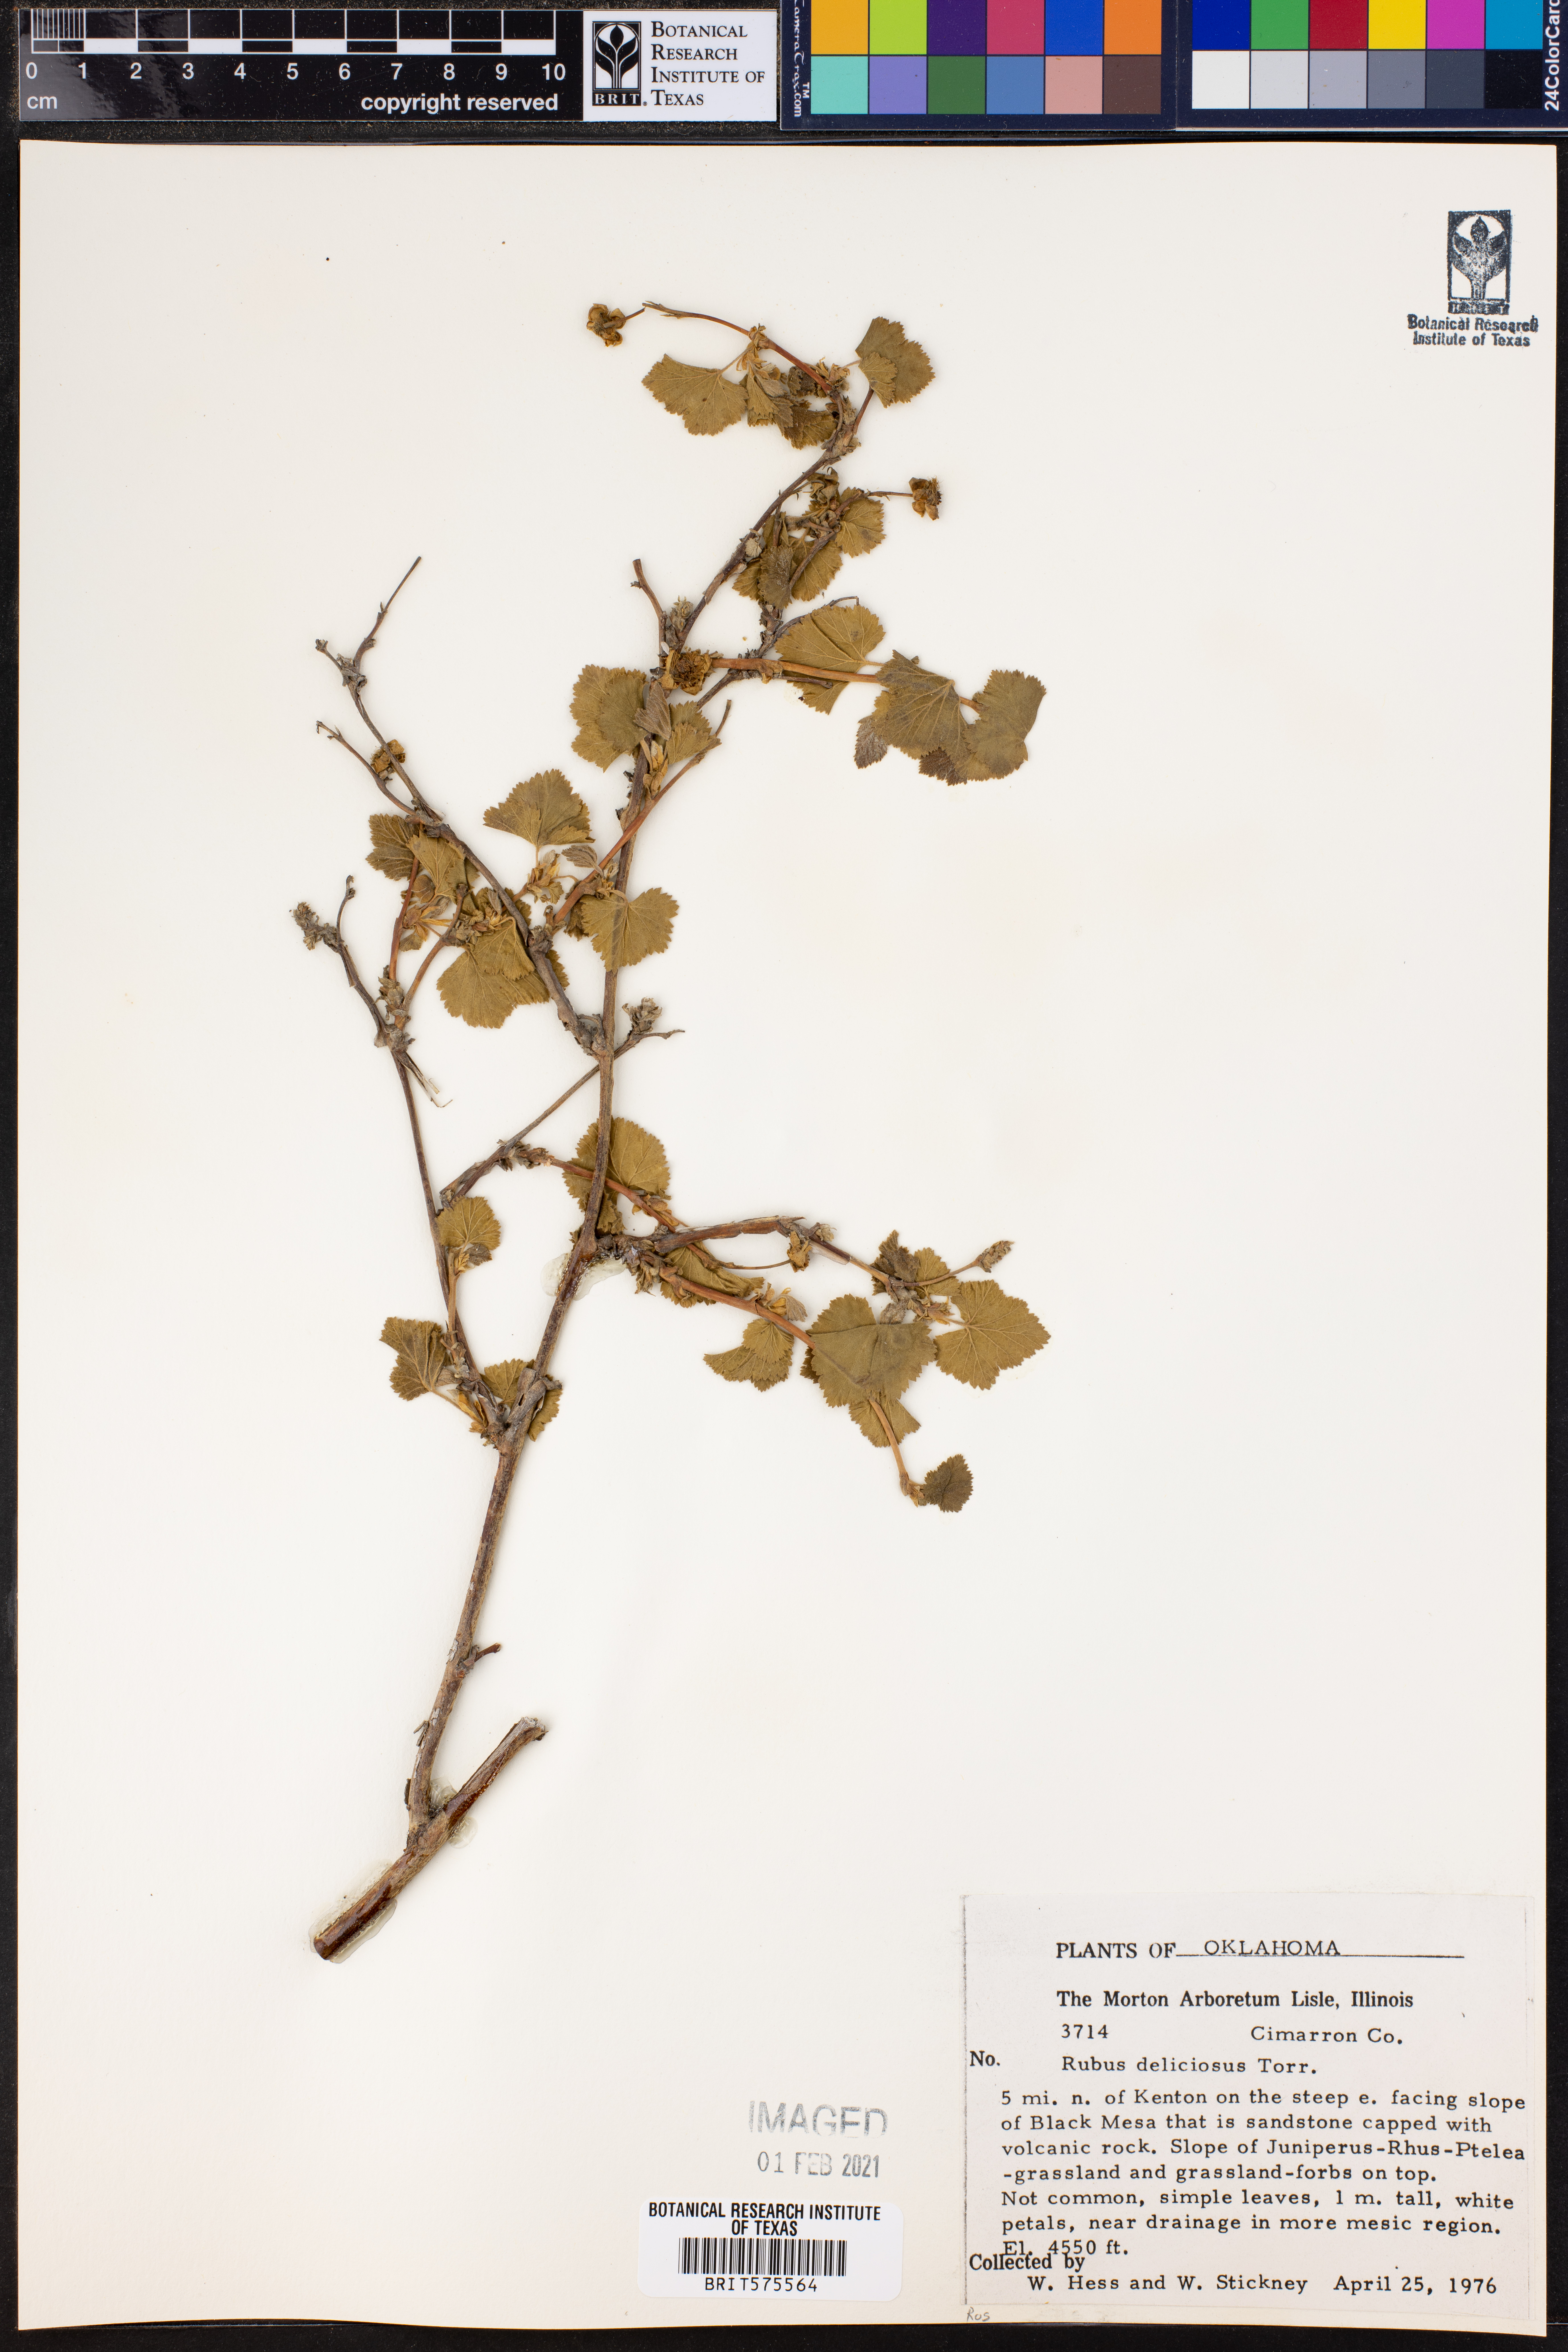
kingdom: Plantae
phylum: Tracheophyta
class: Magnoliopsida
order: Rosales
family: Rosaceae
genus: Rubus
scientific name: Rubus deliciosus
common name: Rocky mountain raspberry
